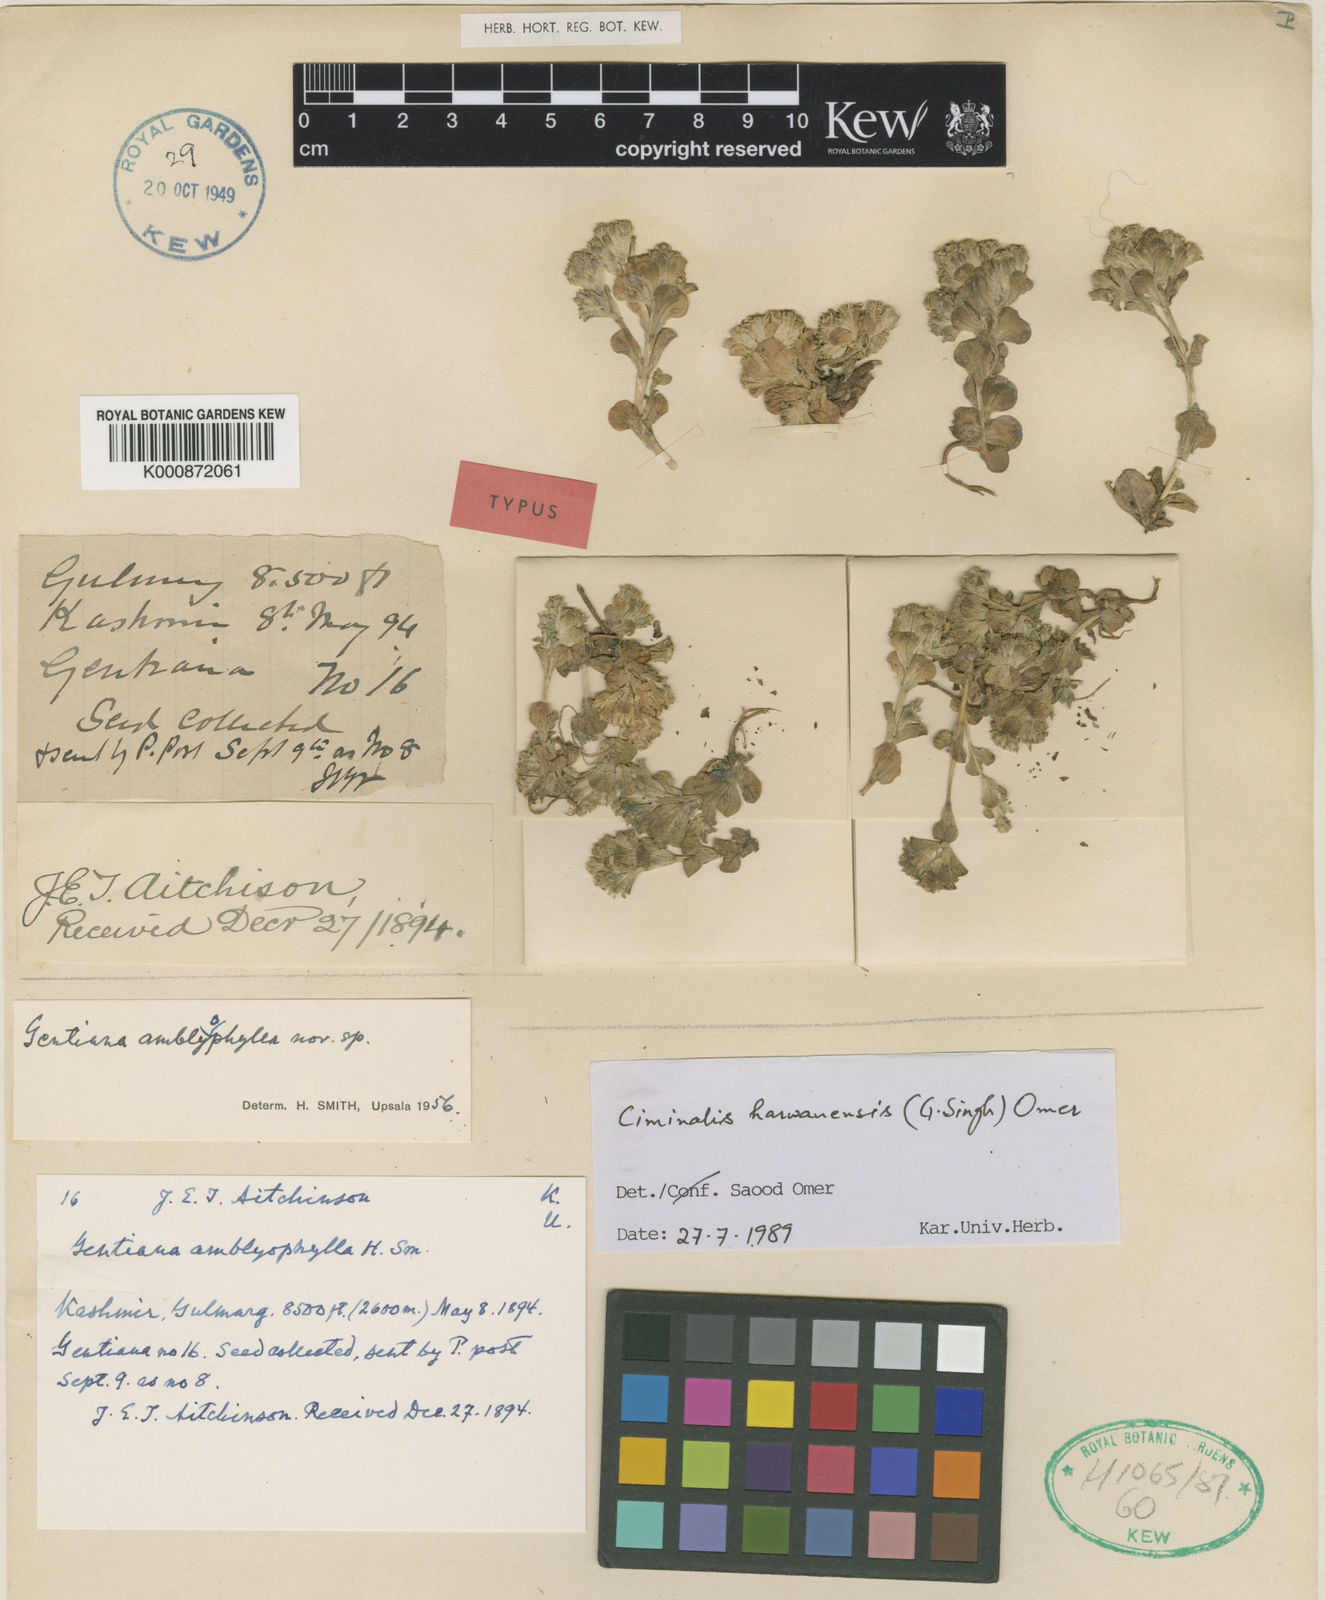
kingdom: Plantae
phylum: Tracheophyta
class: Magnoliopsida
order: Gentianales
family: Gentianaceae
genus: Gentiana
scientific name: Gentiana capitata
